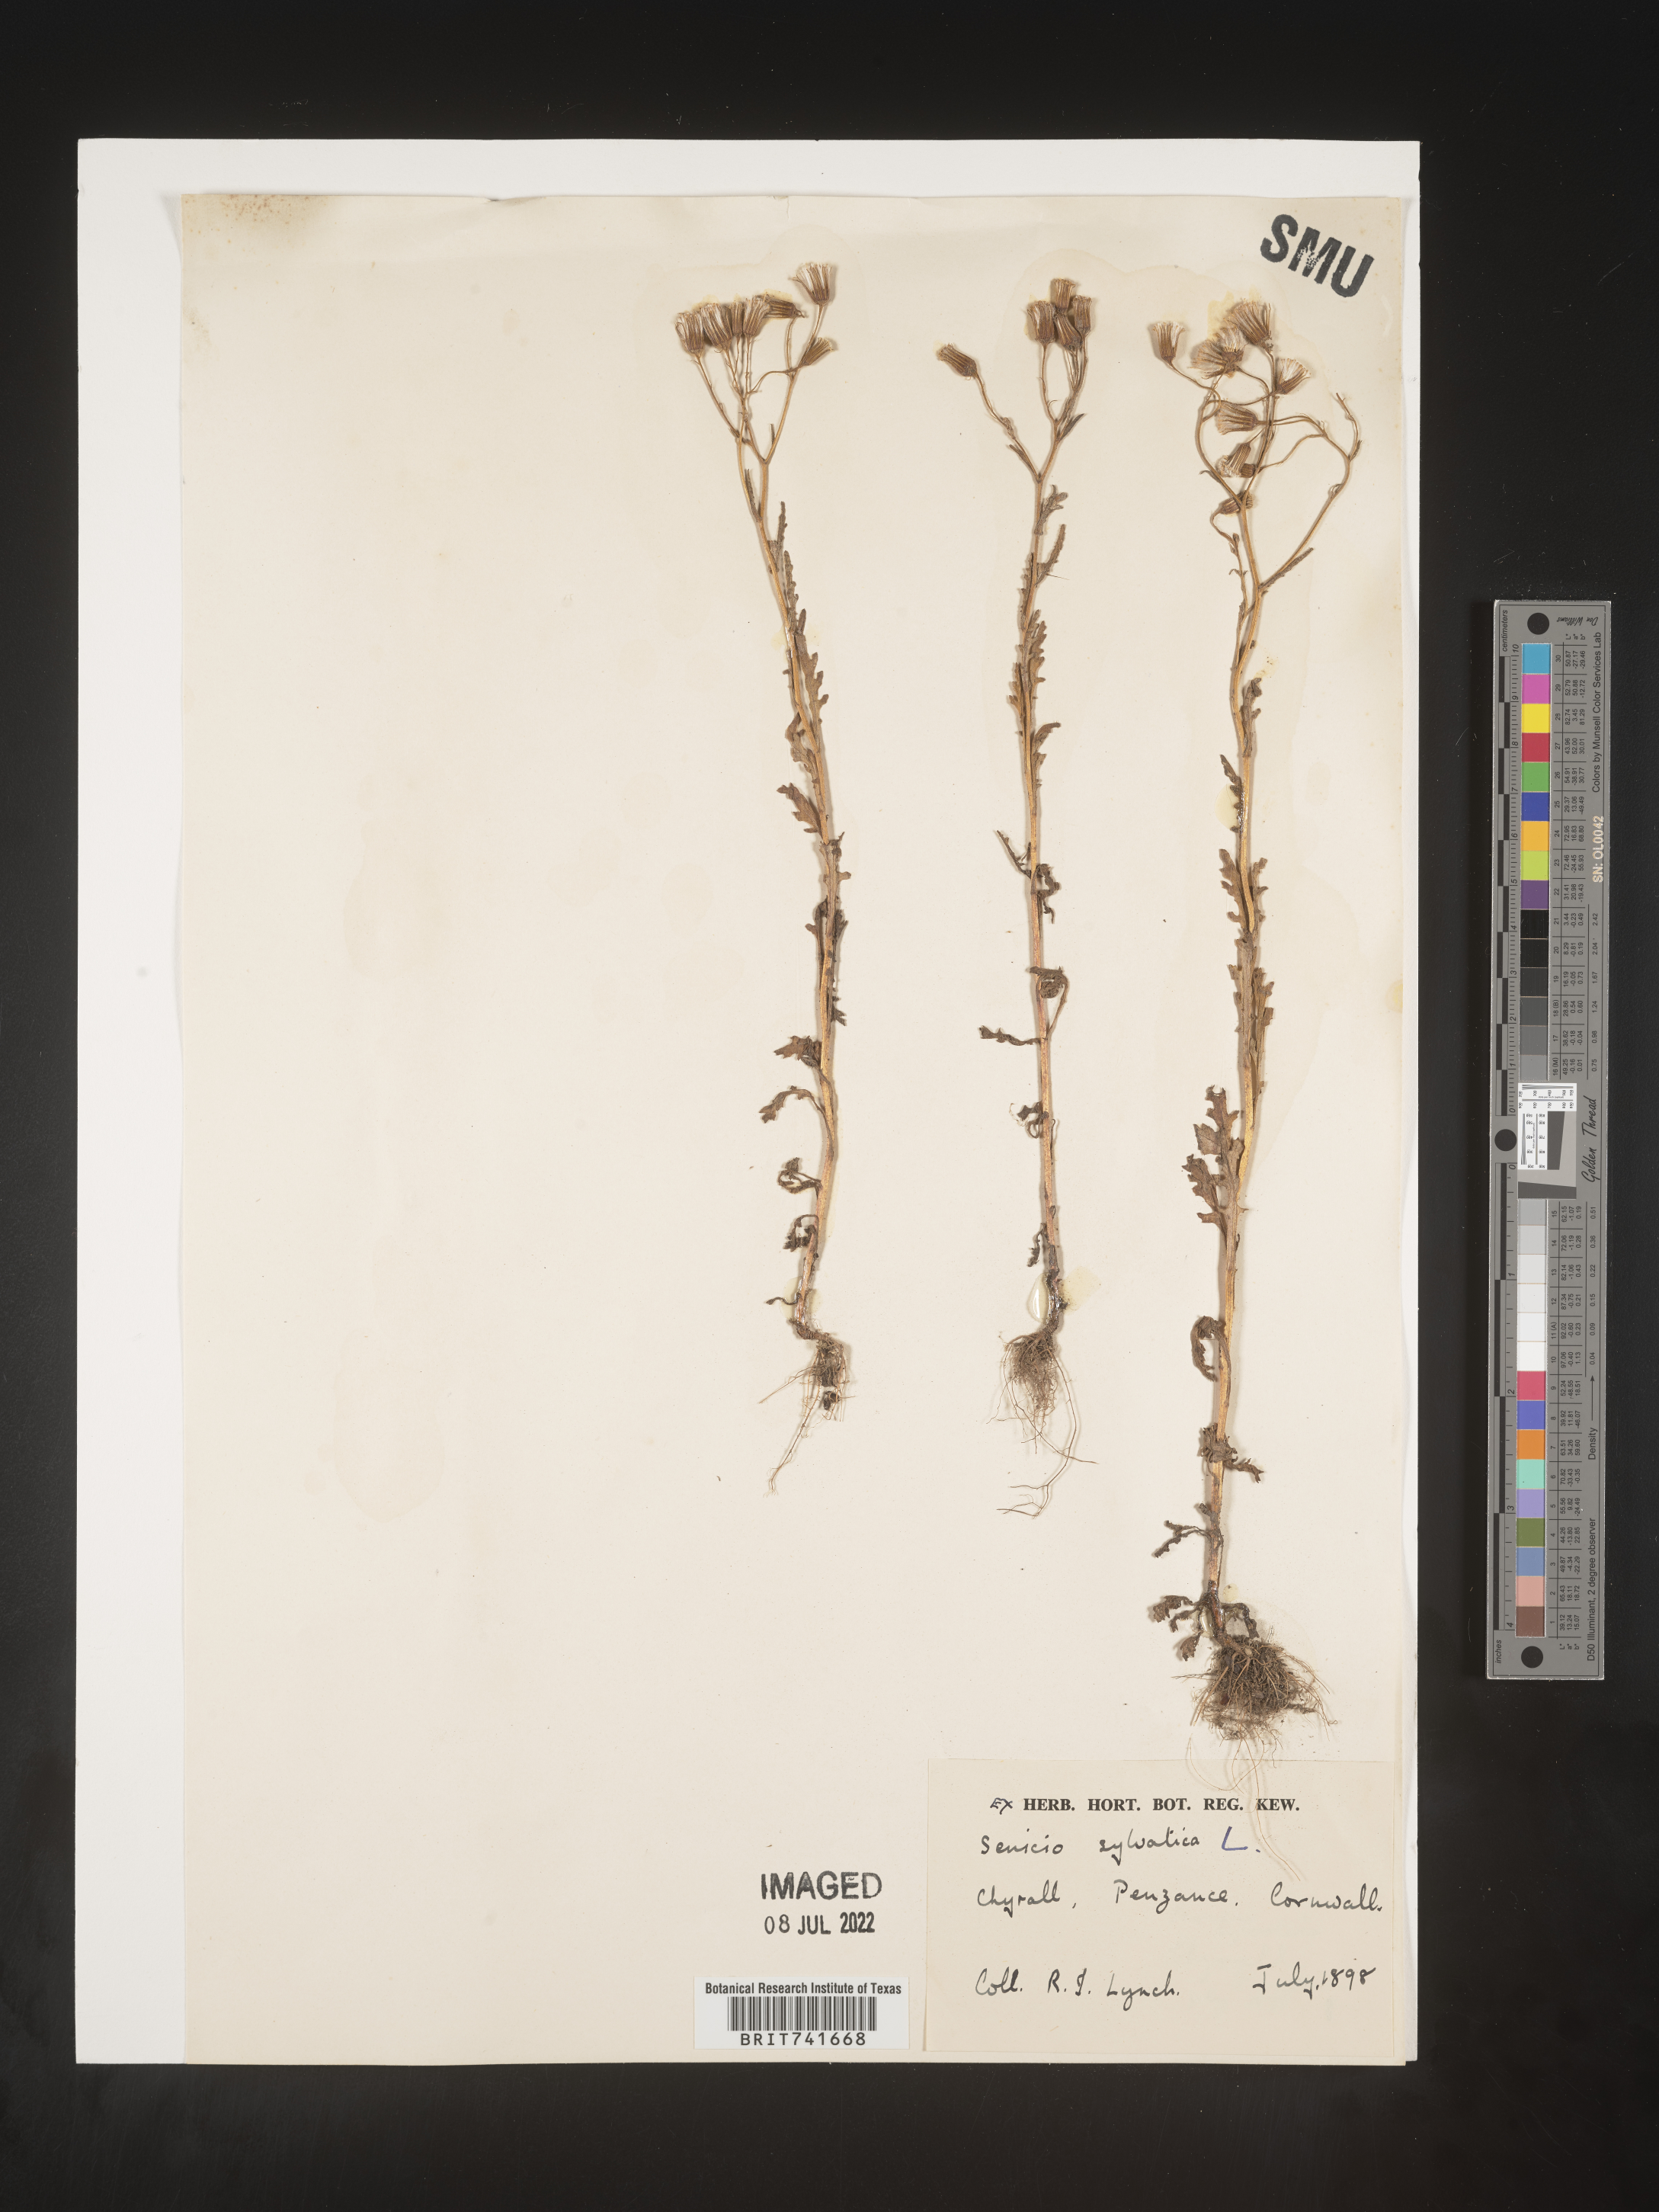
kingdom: Plantae
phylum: Tracheophyta
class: Magnoliopsida
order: Asterales
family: Asteraceae
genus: Senecio
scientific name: Senecio
